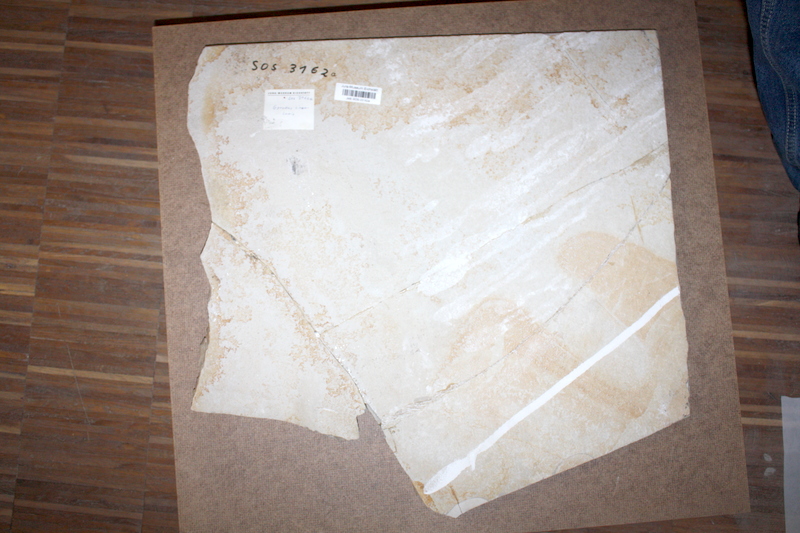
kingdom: Animalia
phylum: Chordata
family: Gyrodontidae
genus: Gyrodus
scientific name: Gyrodus circularis
